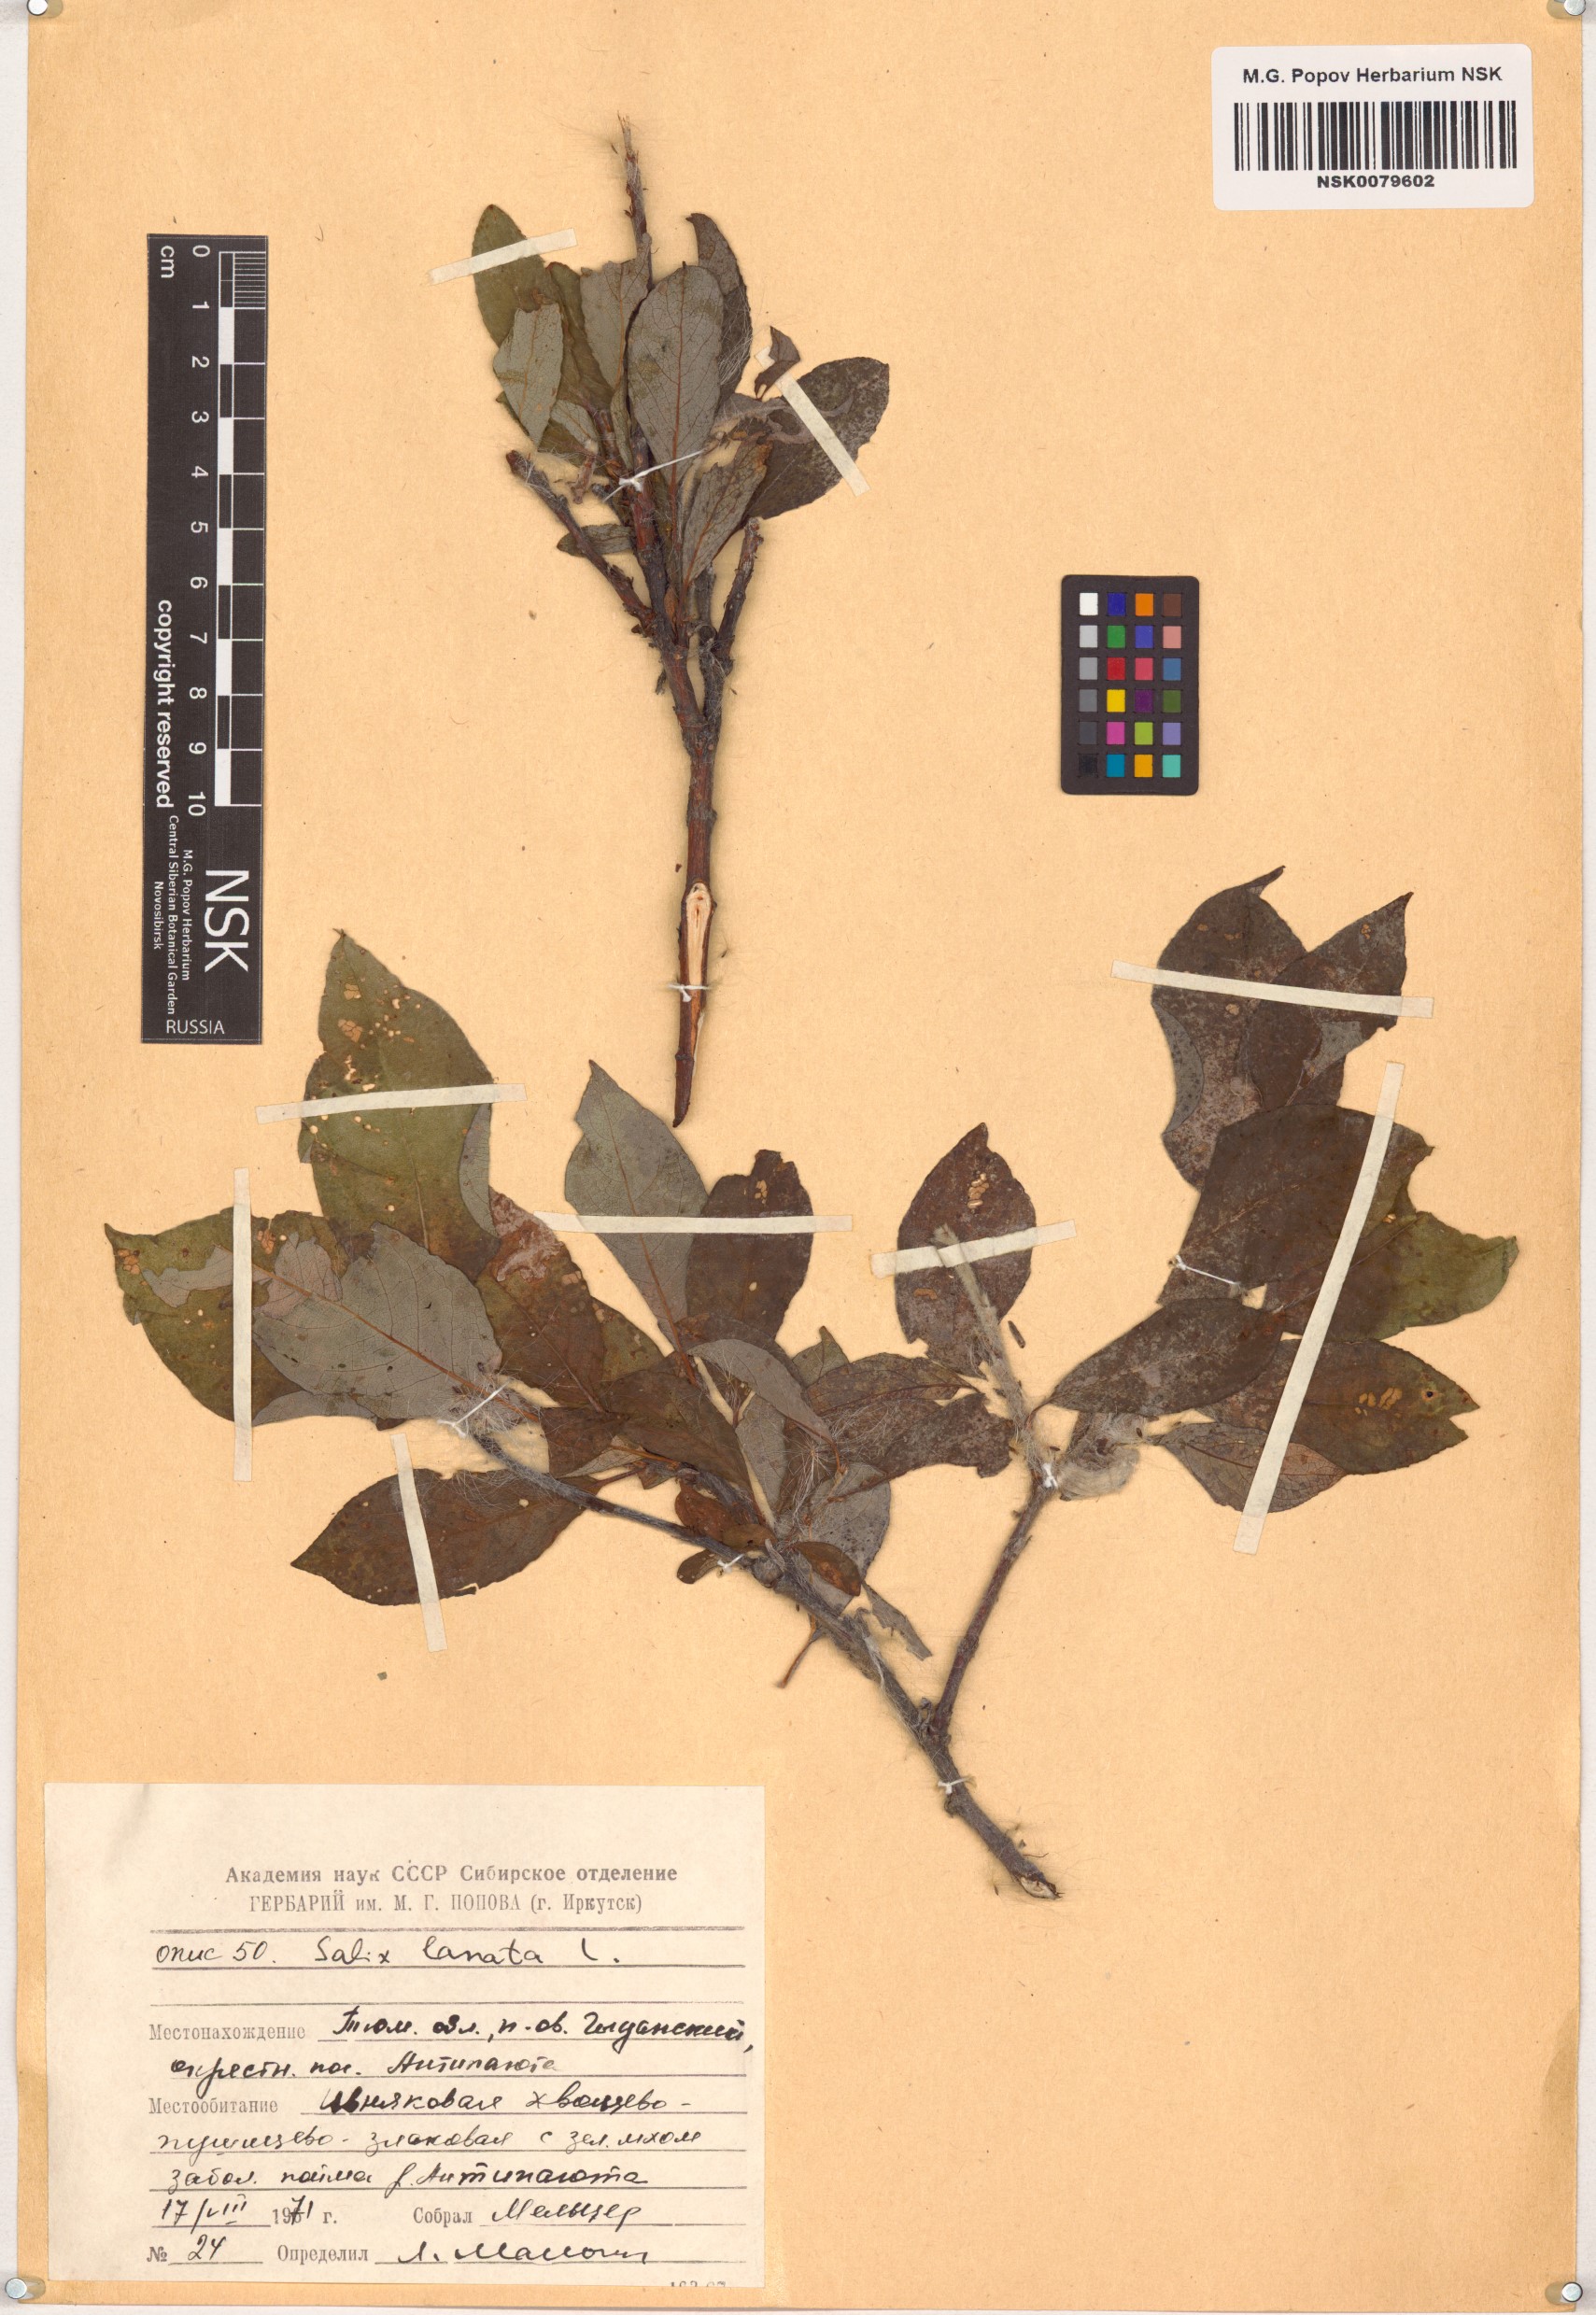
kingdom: Plantae
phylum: Tracheophyta
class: Magnoliopsida
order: Malpighiales
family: Salicaceae
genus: Salix
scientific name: Salix lanata
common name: Woolly willow
